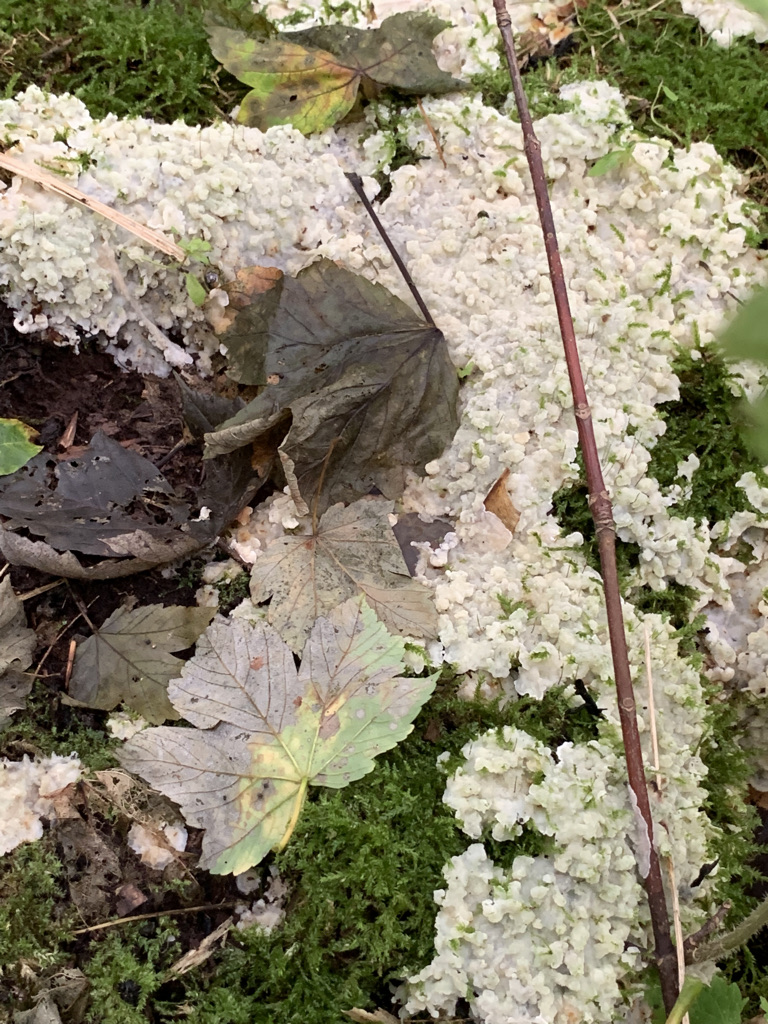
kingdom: Fungi
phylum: Basidiomycota
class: Agaricomycetes
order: Polyporales
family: Meruliaceae
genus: Physisporinus
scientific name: Physisporinus vitreus
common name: mastesvamp
